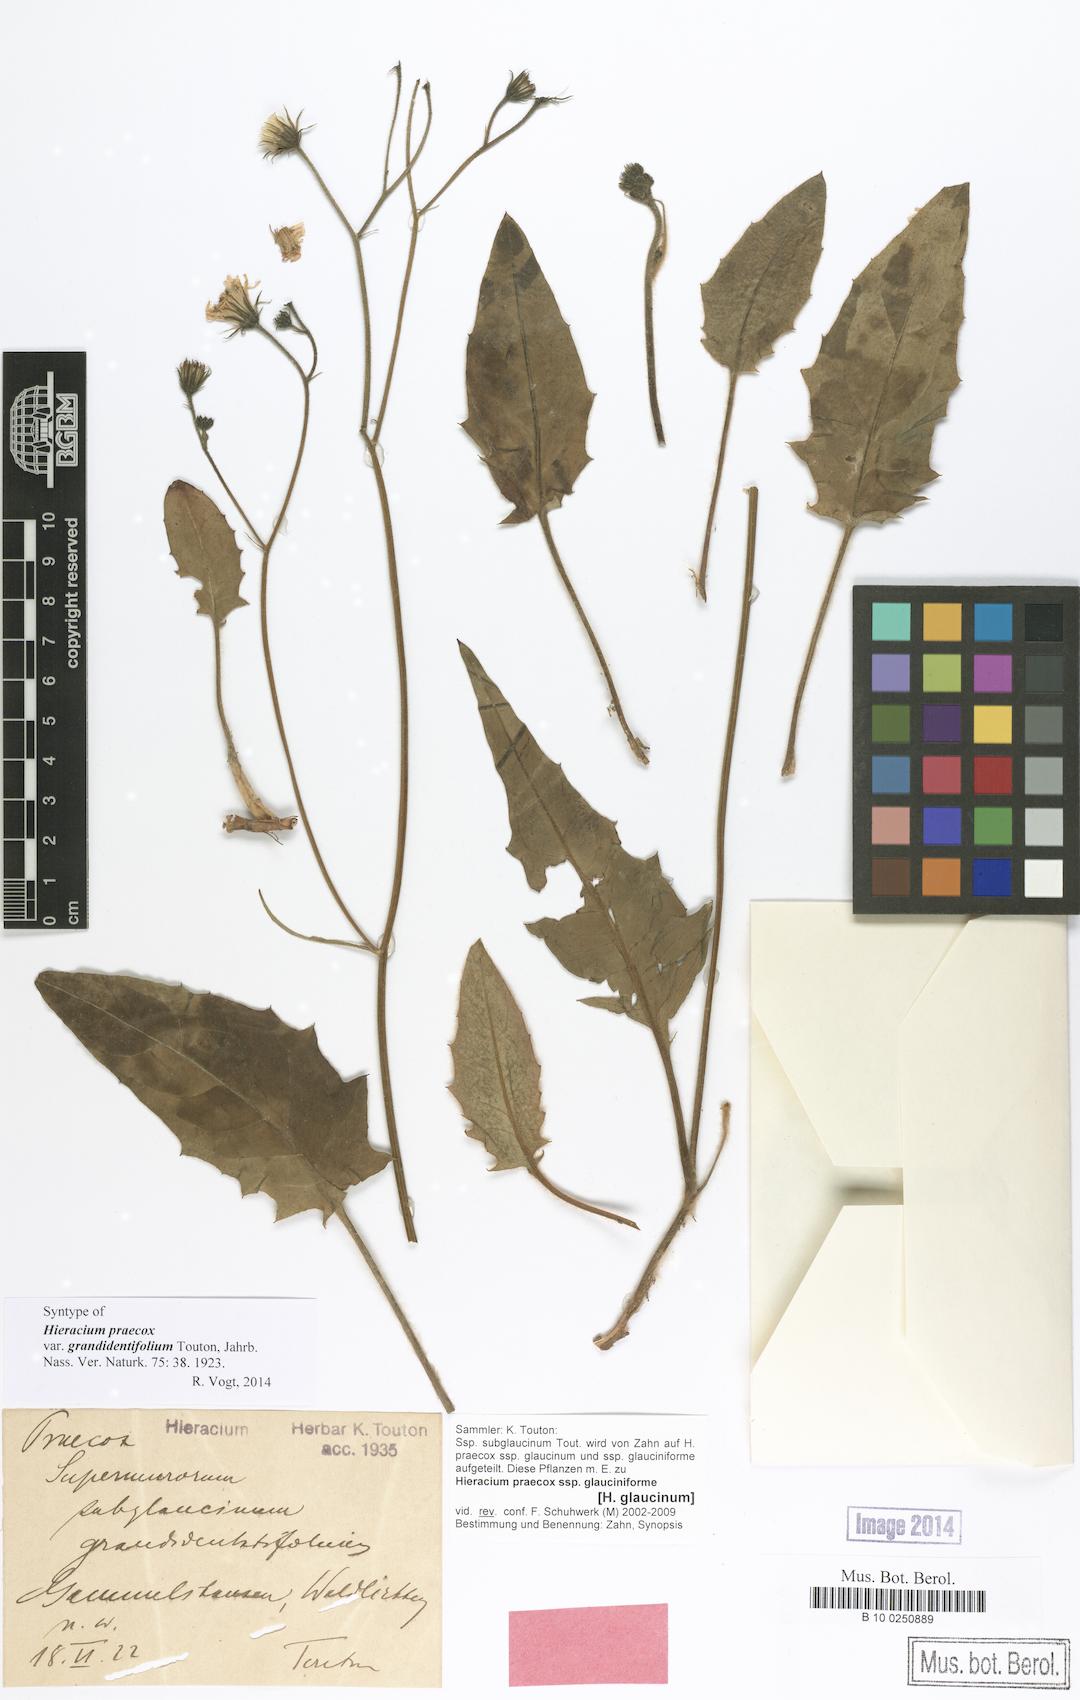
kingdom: Plantae
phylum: Tracheophyta
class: Magnoliopsida
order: Asterales
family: Asteraceae
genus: Hieracium
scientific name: Hieracium praecox
